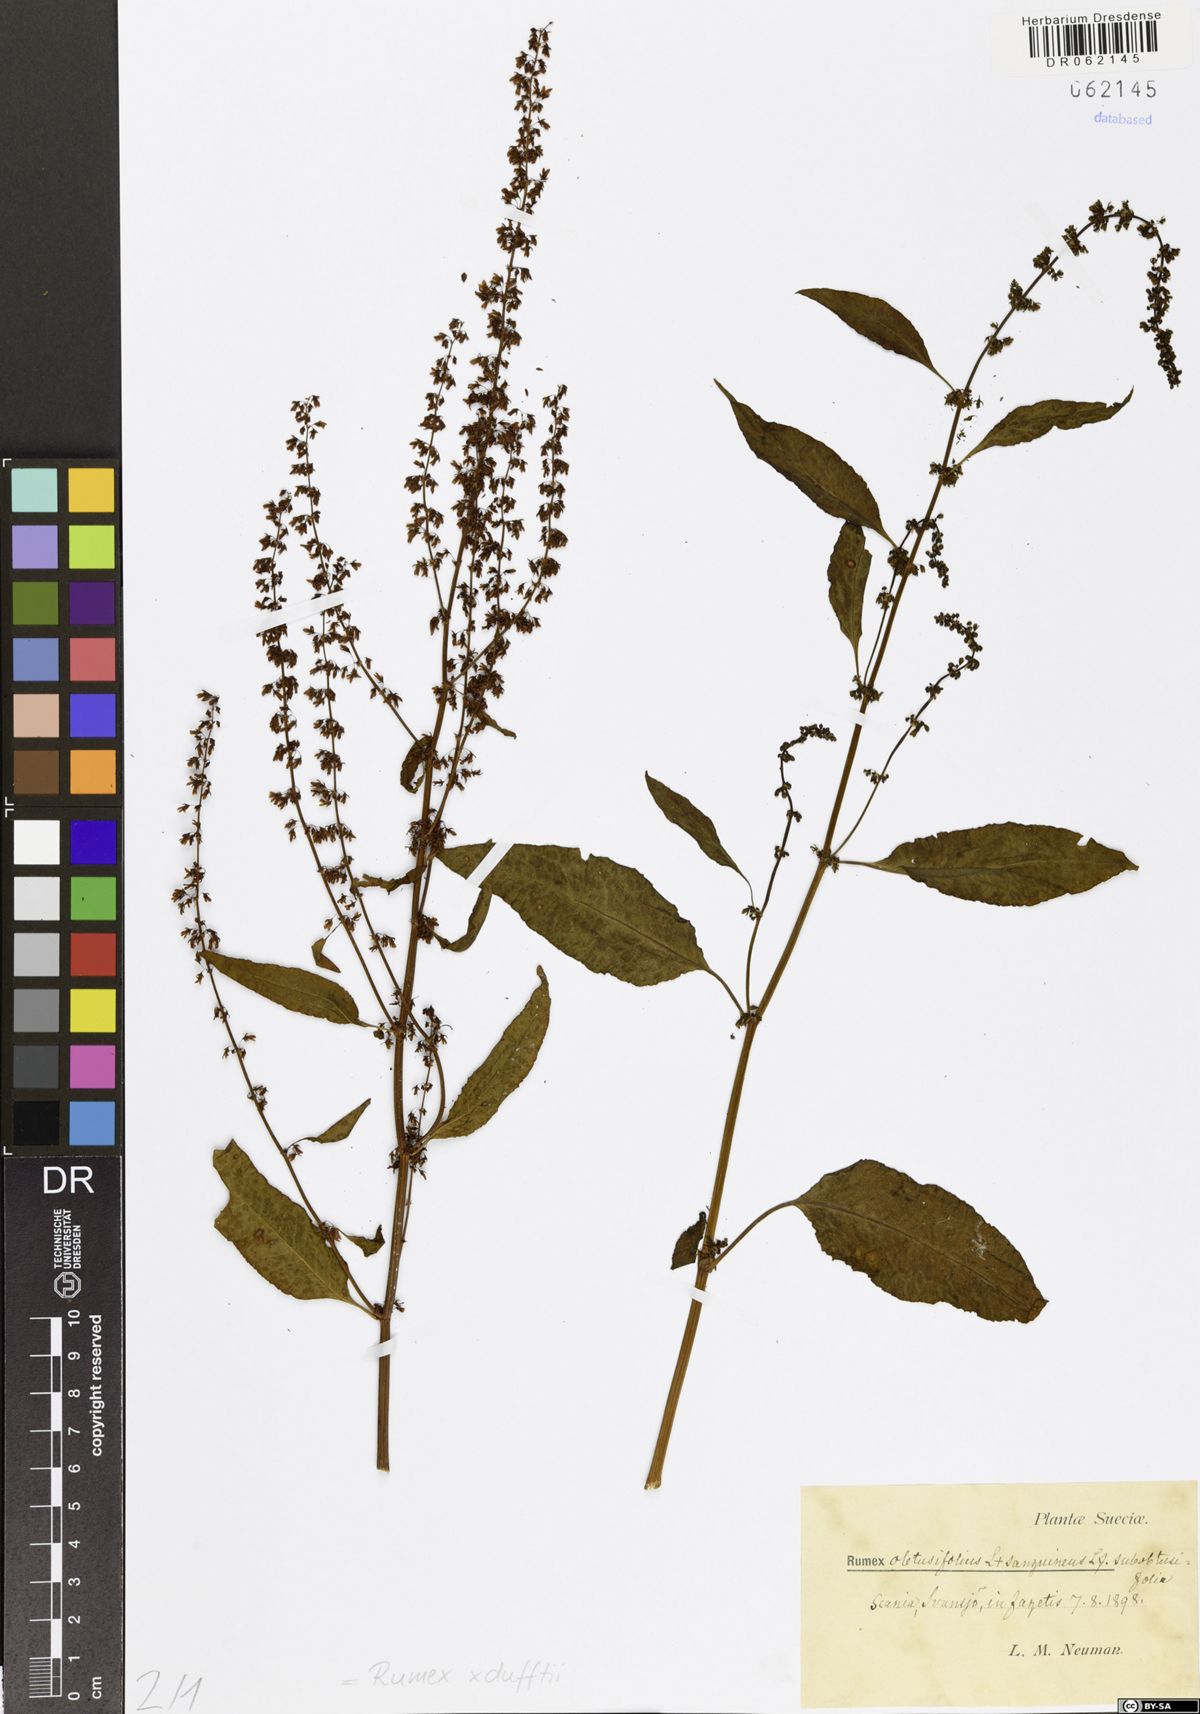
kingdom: Plantae
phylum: Tracheophyta
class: Magnoliopsida
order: Caryophyllales
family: Polygonaceae
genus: Rumex
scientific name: Rumex dufftii
